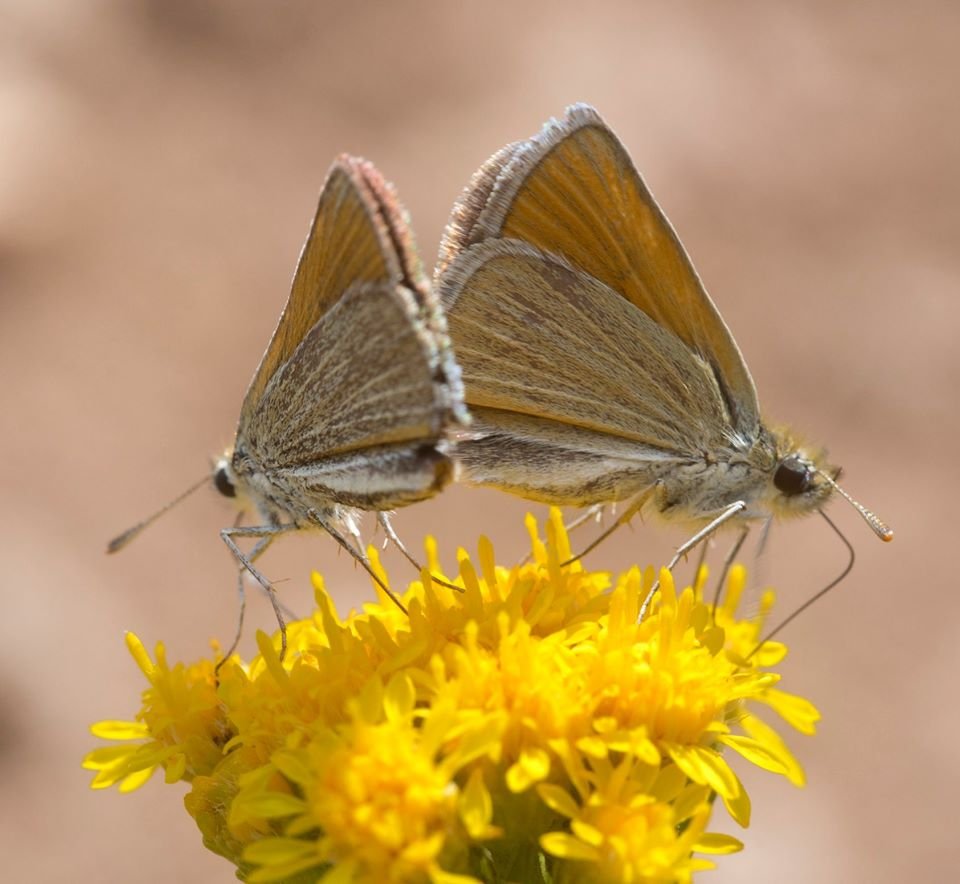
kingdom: Animalia
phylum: Arthropoda
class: Insecta
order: Lepidoptera
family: Hesperiidae
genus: Oarisma
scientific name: Oarisma garita
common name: Garita Skipperling
